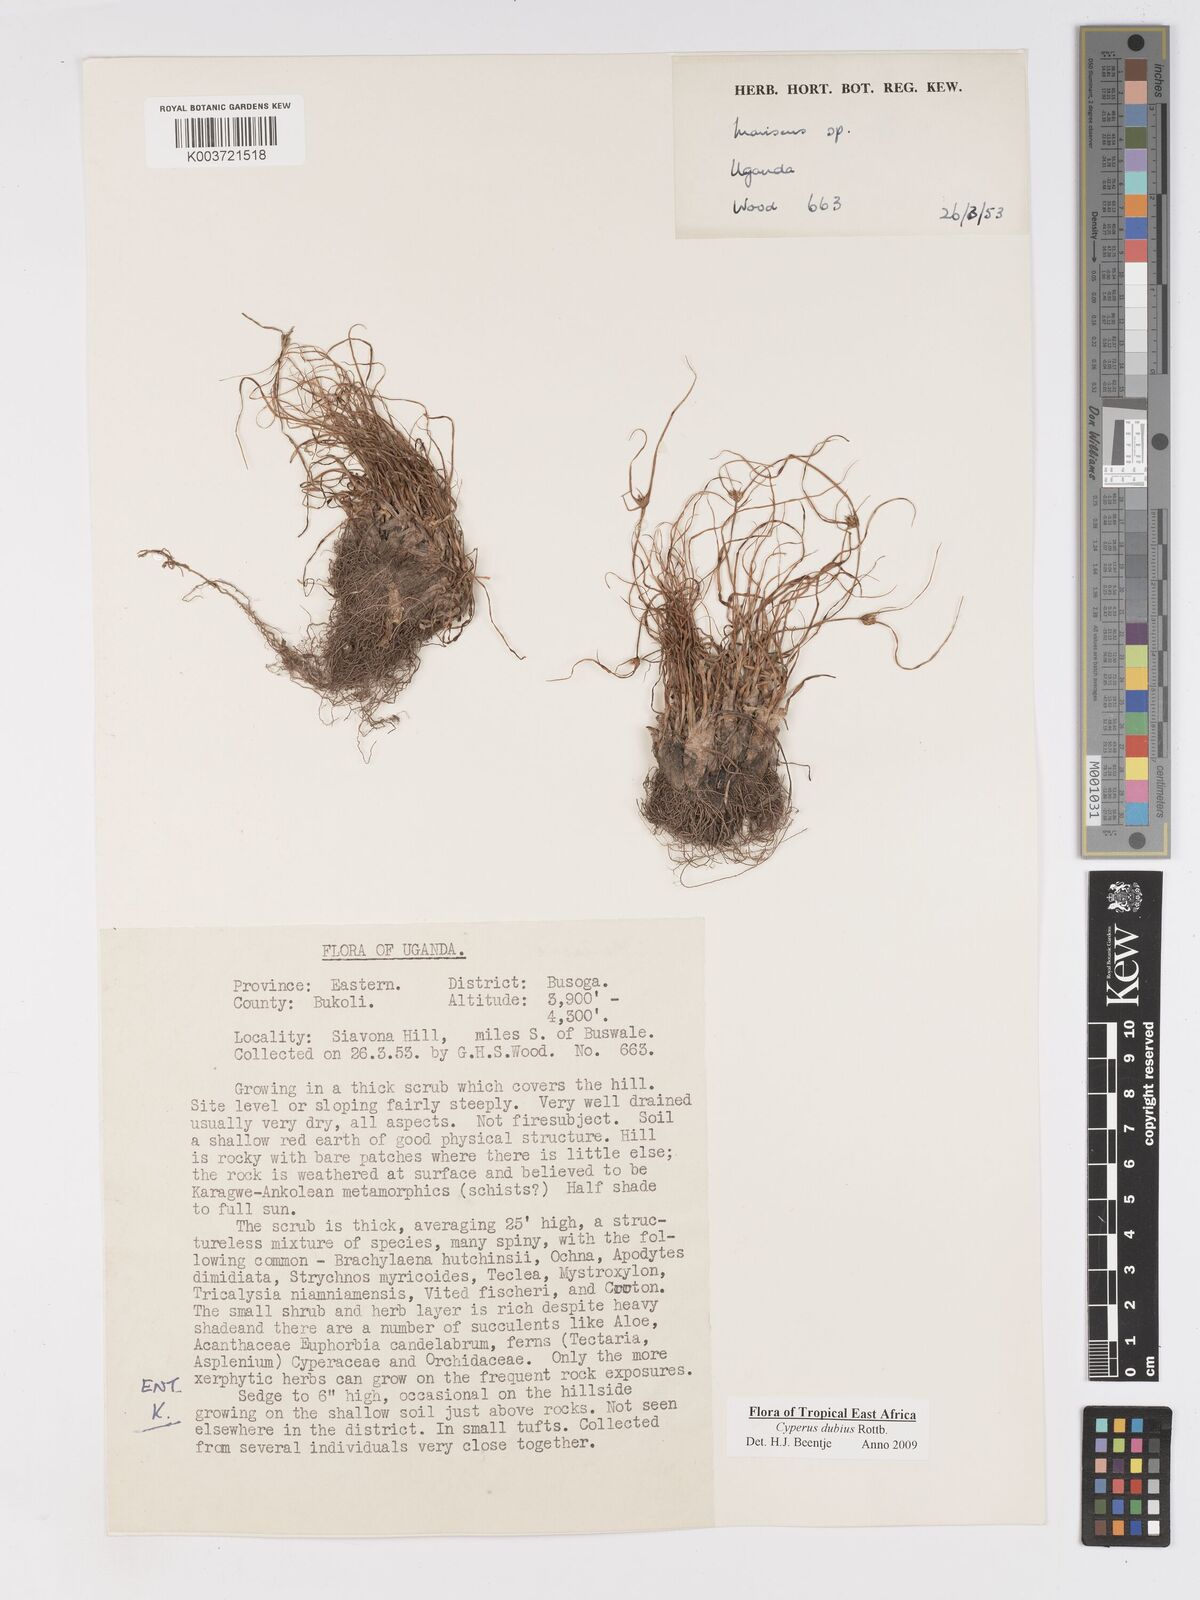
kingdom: Plantae
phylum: Tracheophyta
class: Liliopsida
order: Poales
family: Cyperaceae
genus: Cyperus
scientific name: Cyperus dubius
